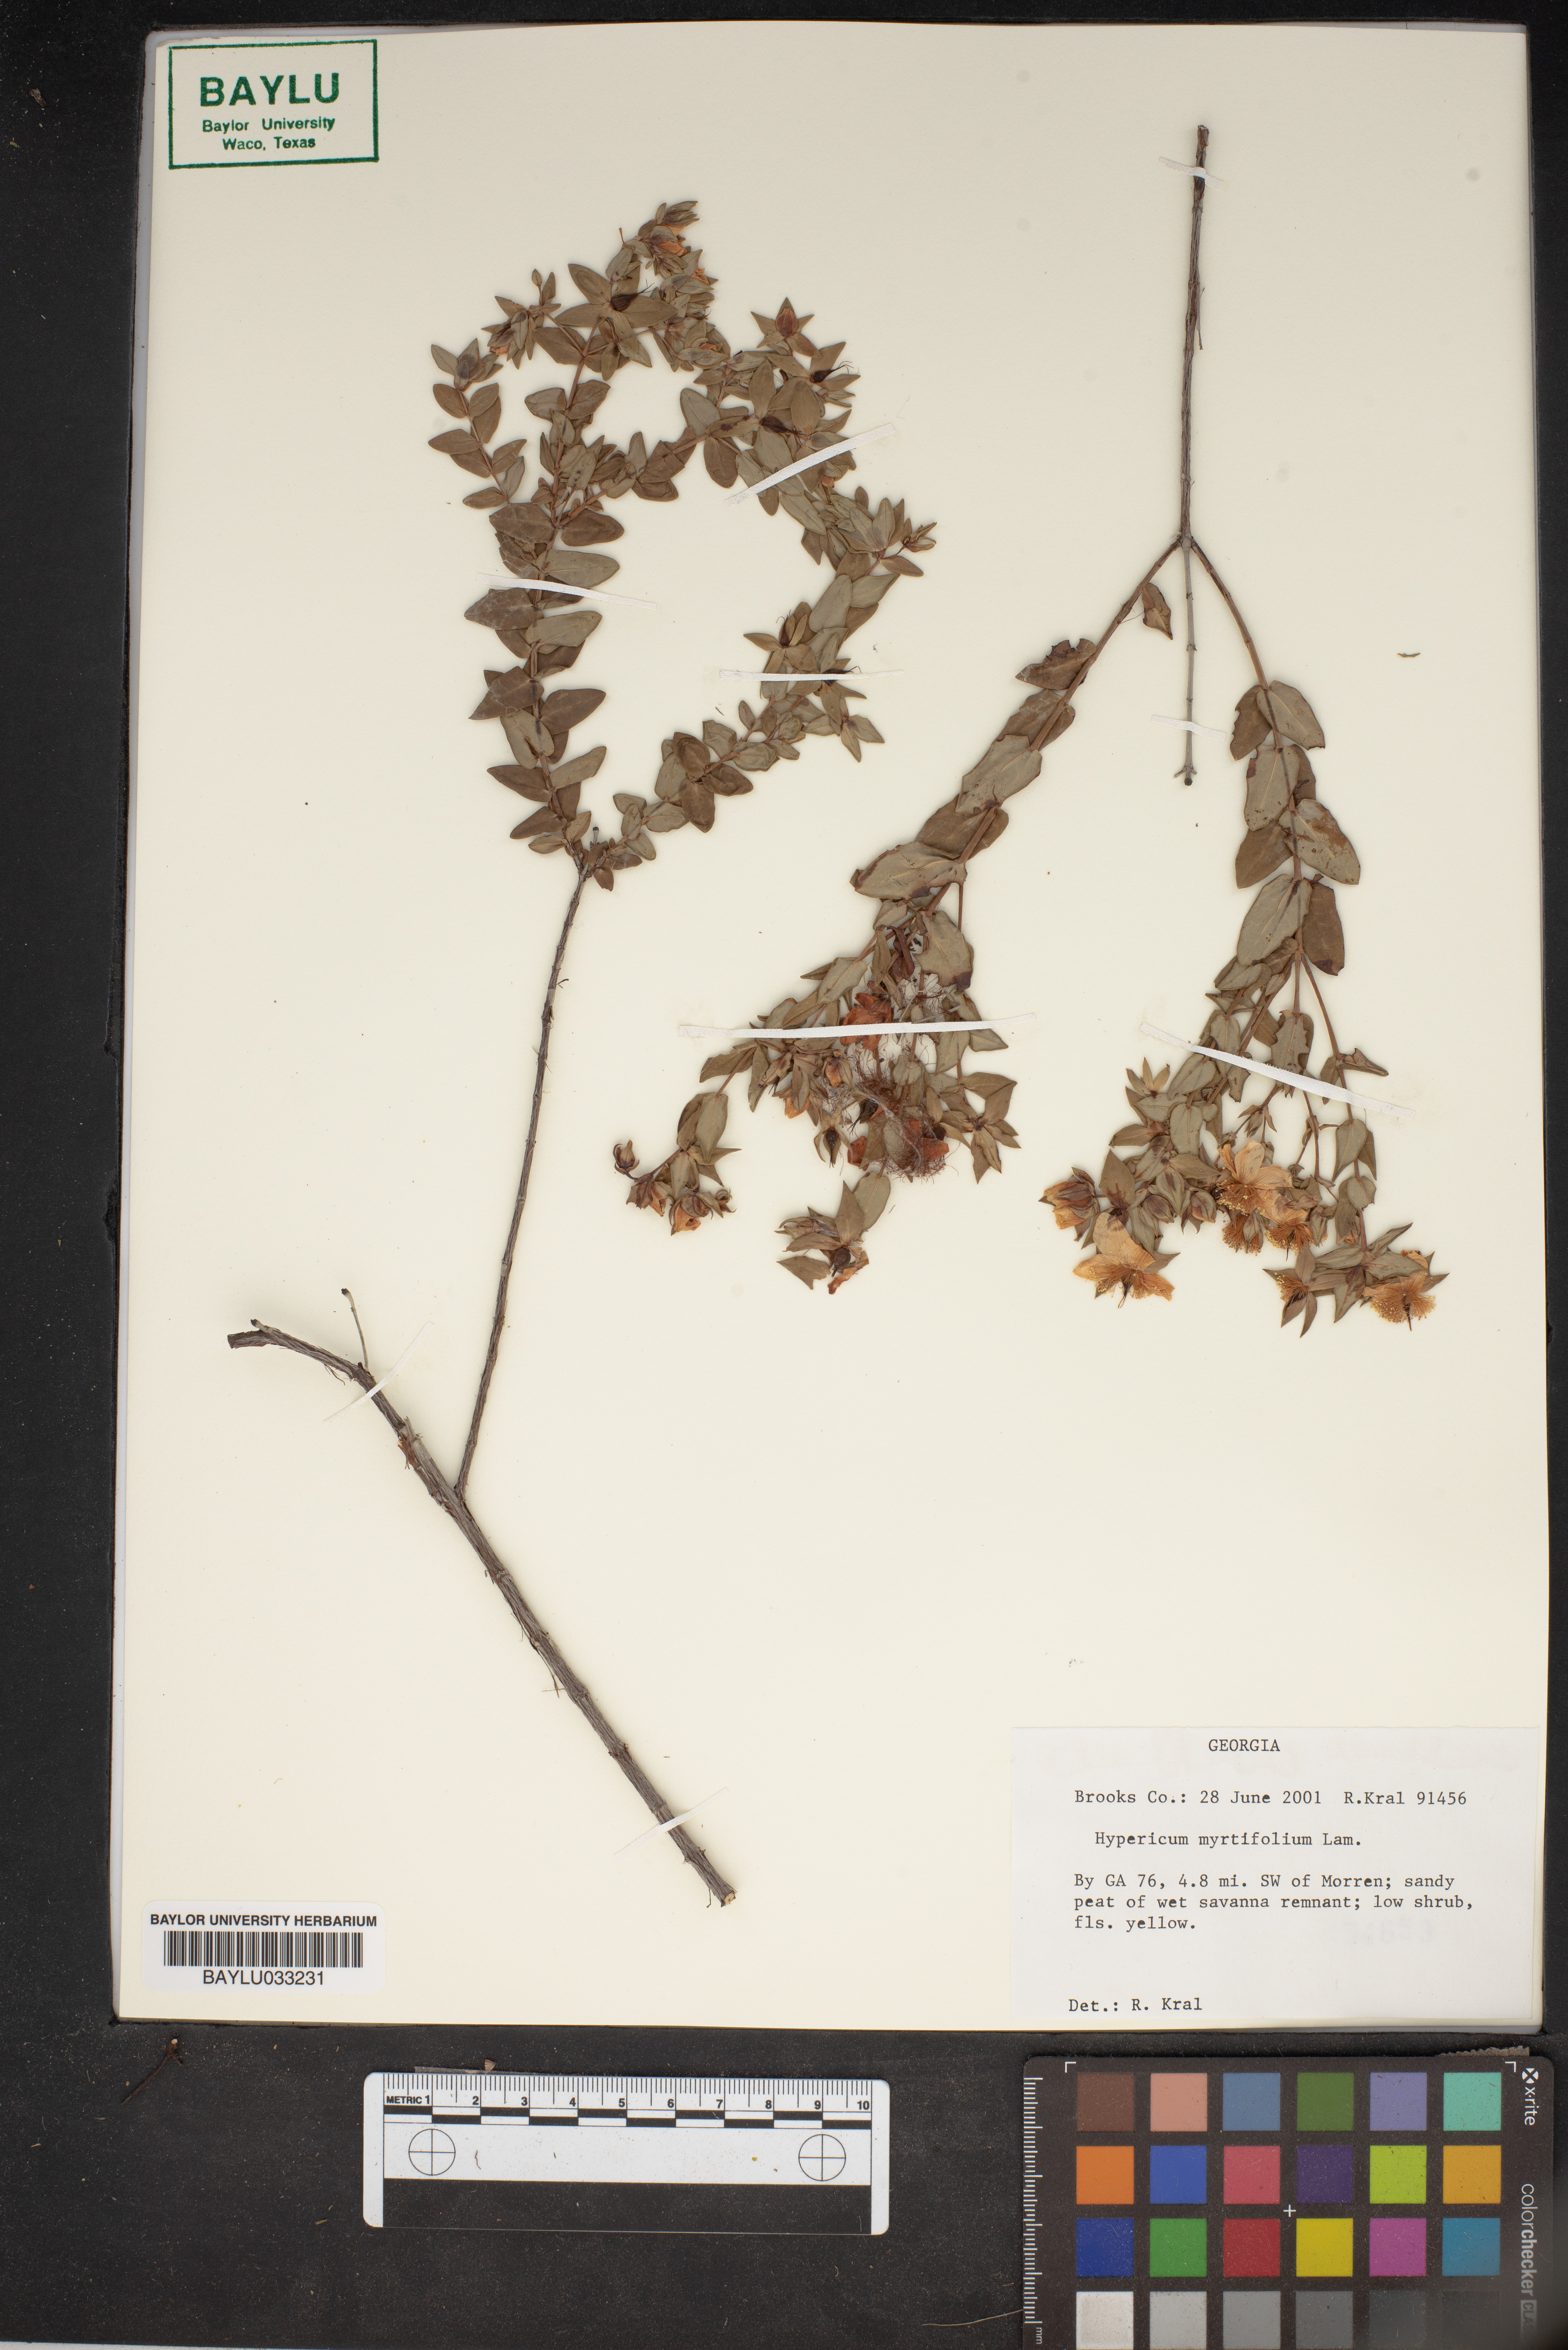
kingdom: Plantae
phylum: Tracheophyta
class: Magnoliopsida
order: Malpighiales
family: Hypericaceae
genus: Hypericum
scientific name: Hypericum myrtifolium
